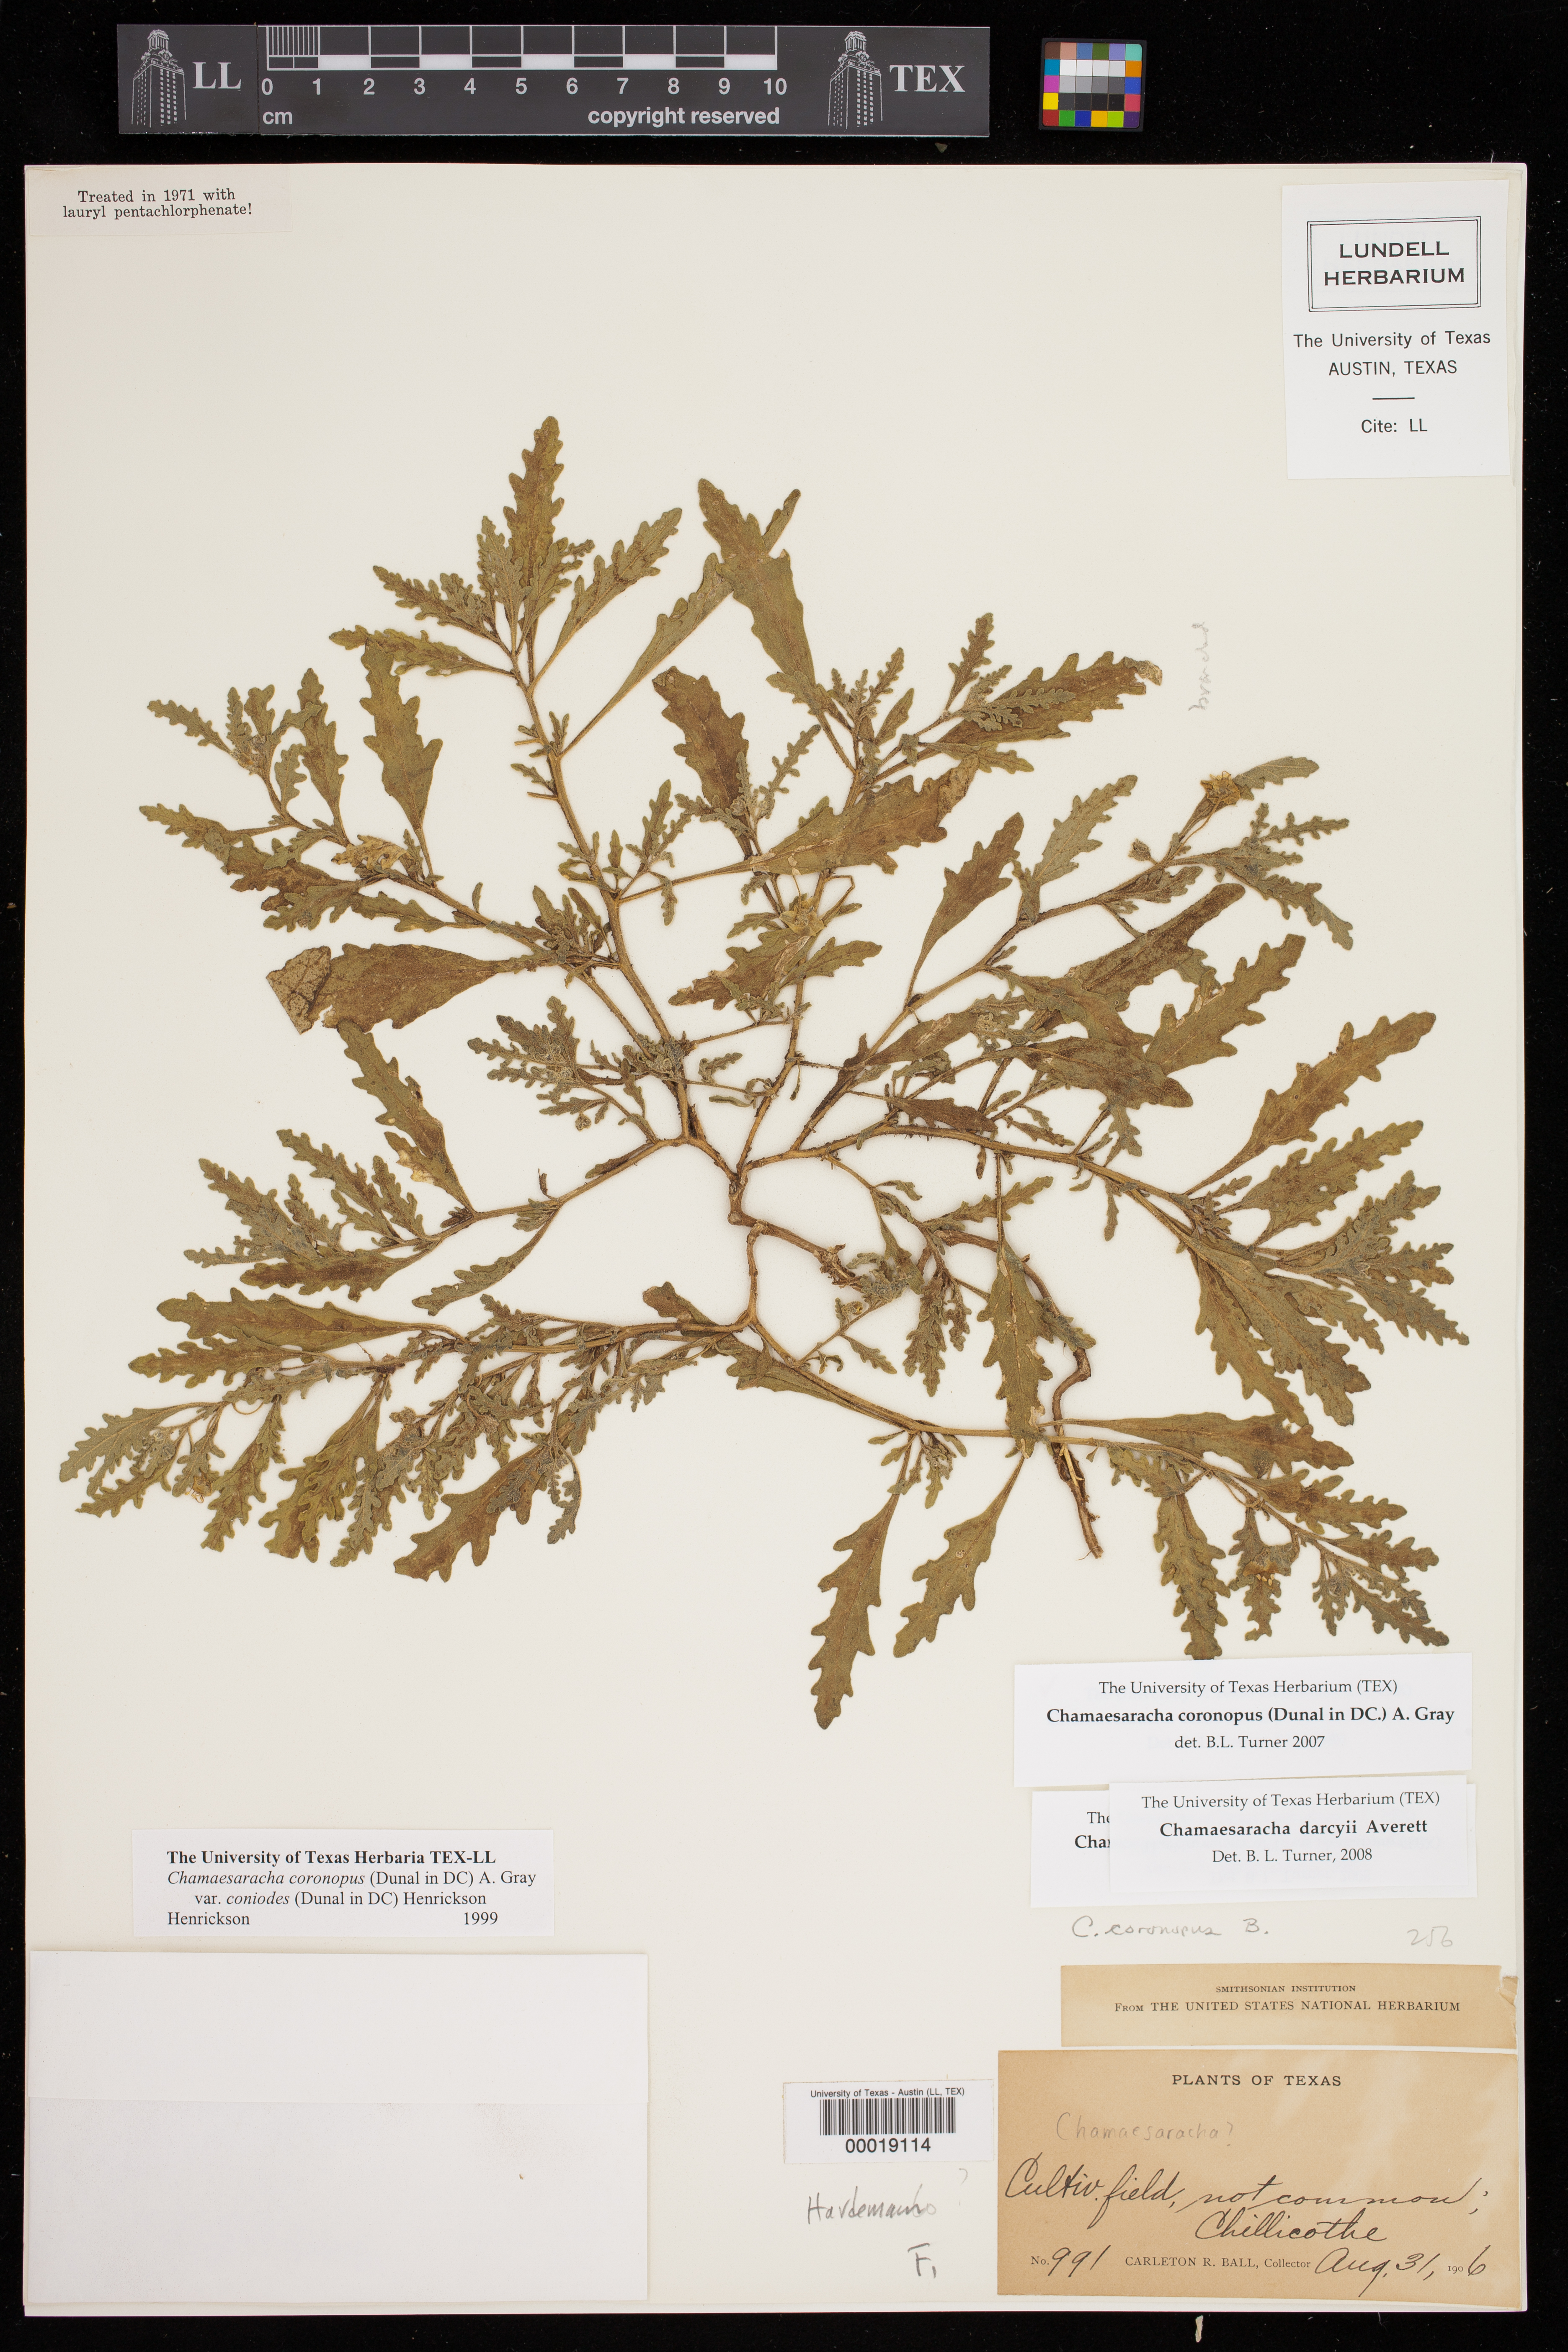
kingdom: Plantae
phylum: Tracheophyta
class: Magnoliopsida
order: Solanales
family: Solanaceae
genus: Chamaesaracha
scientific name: Chamaesaracha coniodes
